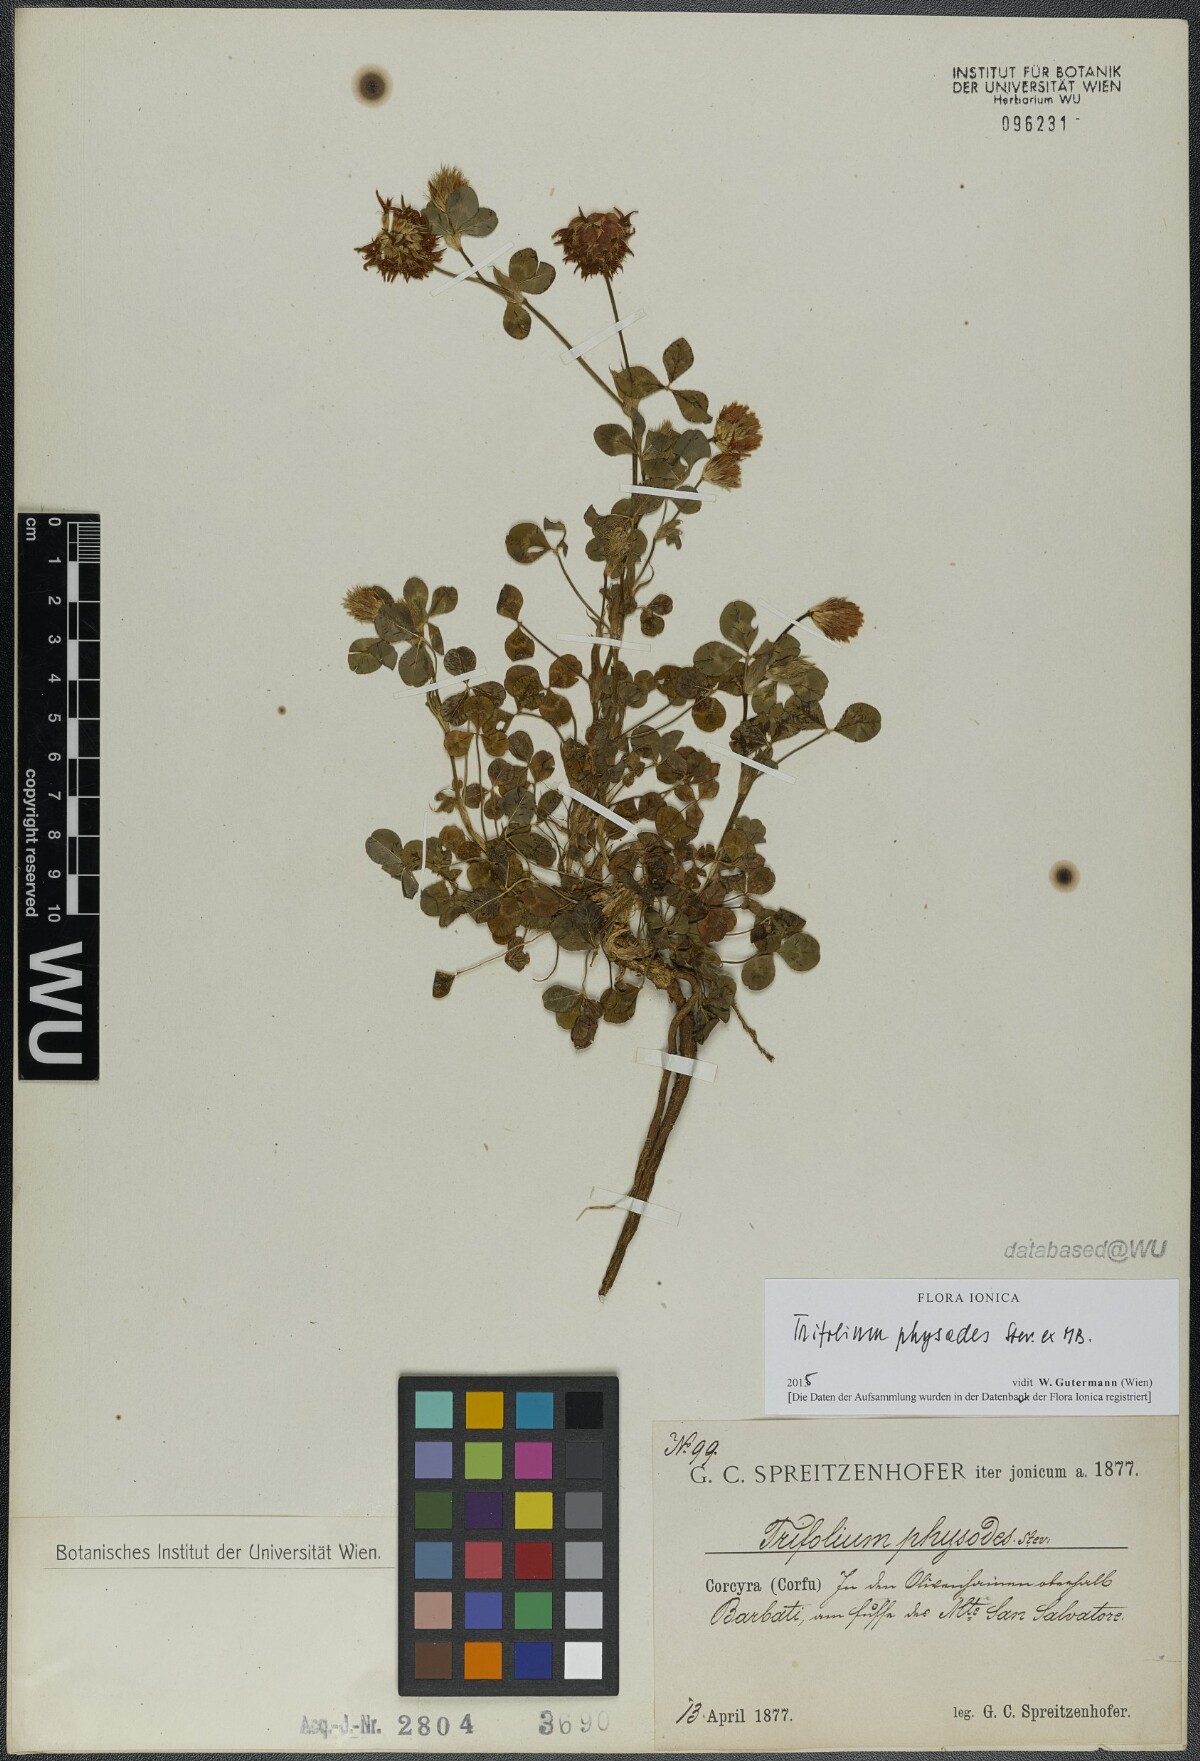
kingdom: Plantae
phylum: Tracheophyta
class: Magnoliopsida
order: Fabales
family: Fabaceae
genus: Trifolium
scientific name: Trifolium physodes
